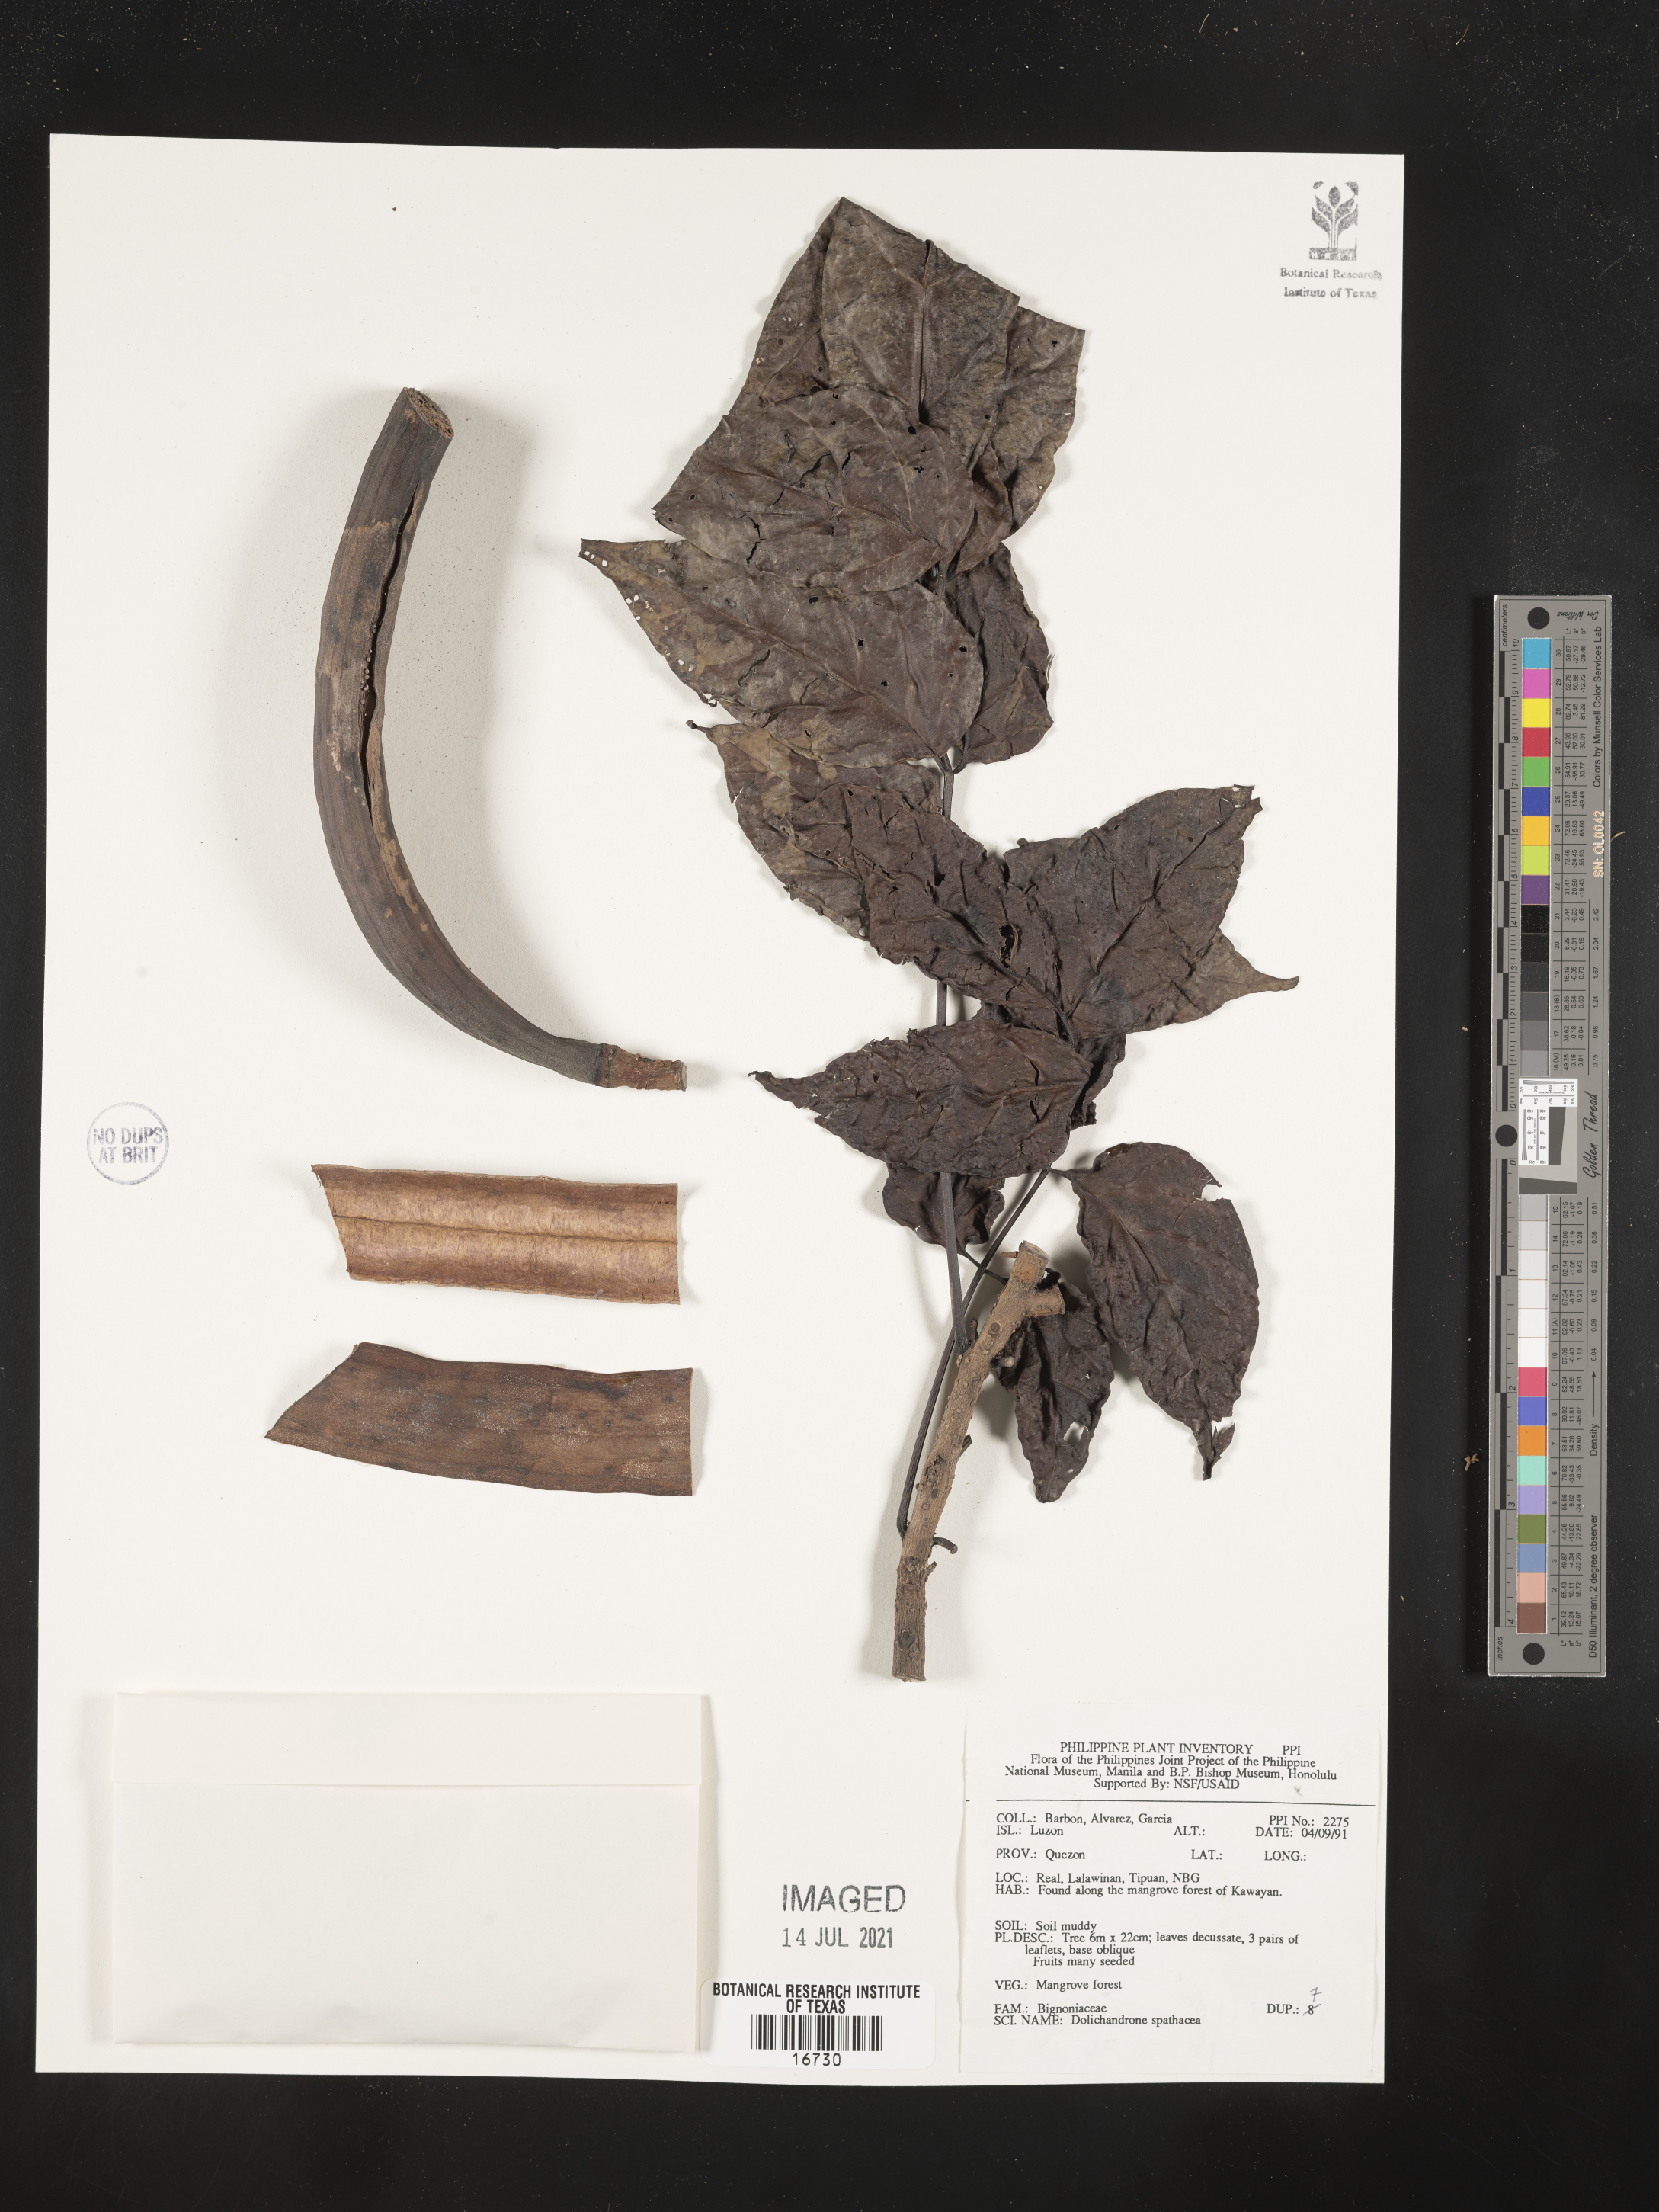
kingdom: Plantae
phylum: Tracheophyta
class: Magnoliopsida
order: Lamiales
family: Bignoniaceae
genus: Dolichandrone
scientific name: Dolichandrone spathacea
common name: Mangrove trumpet-tree
